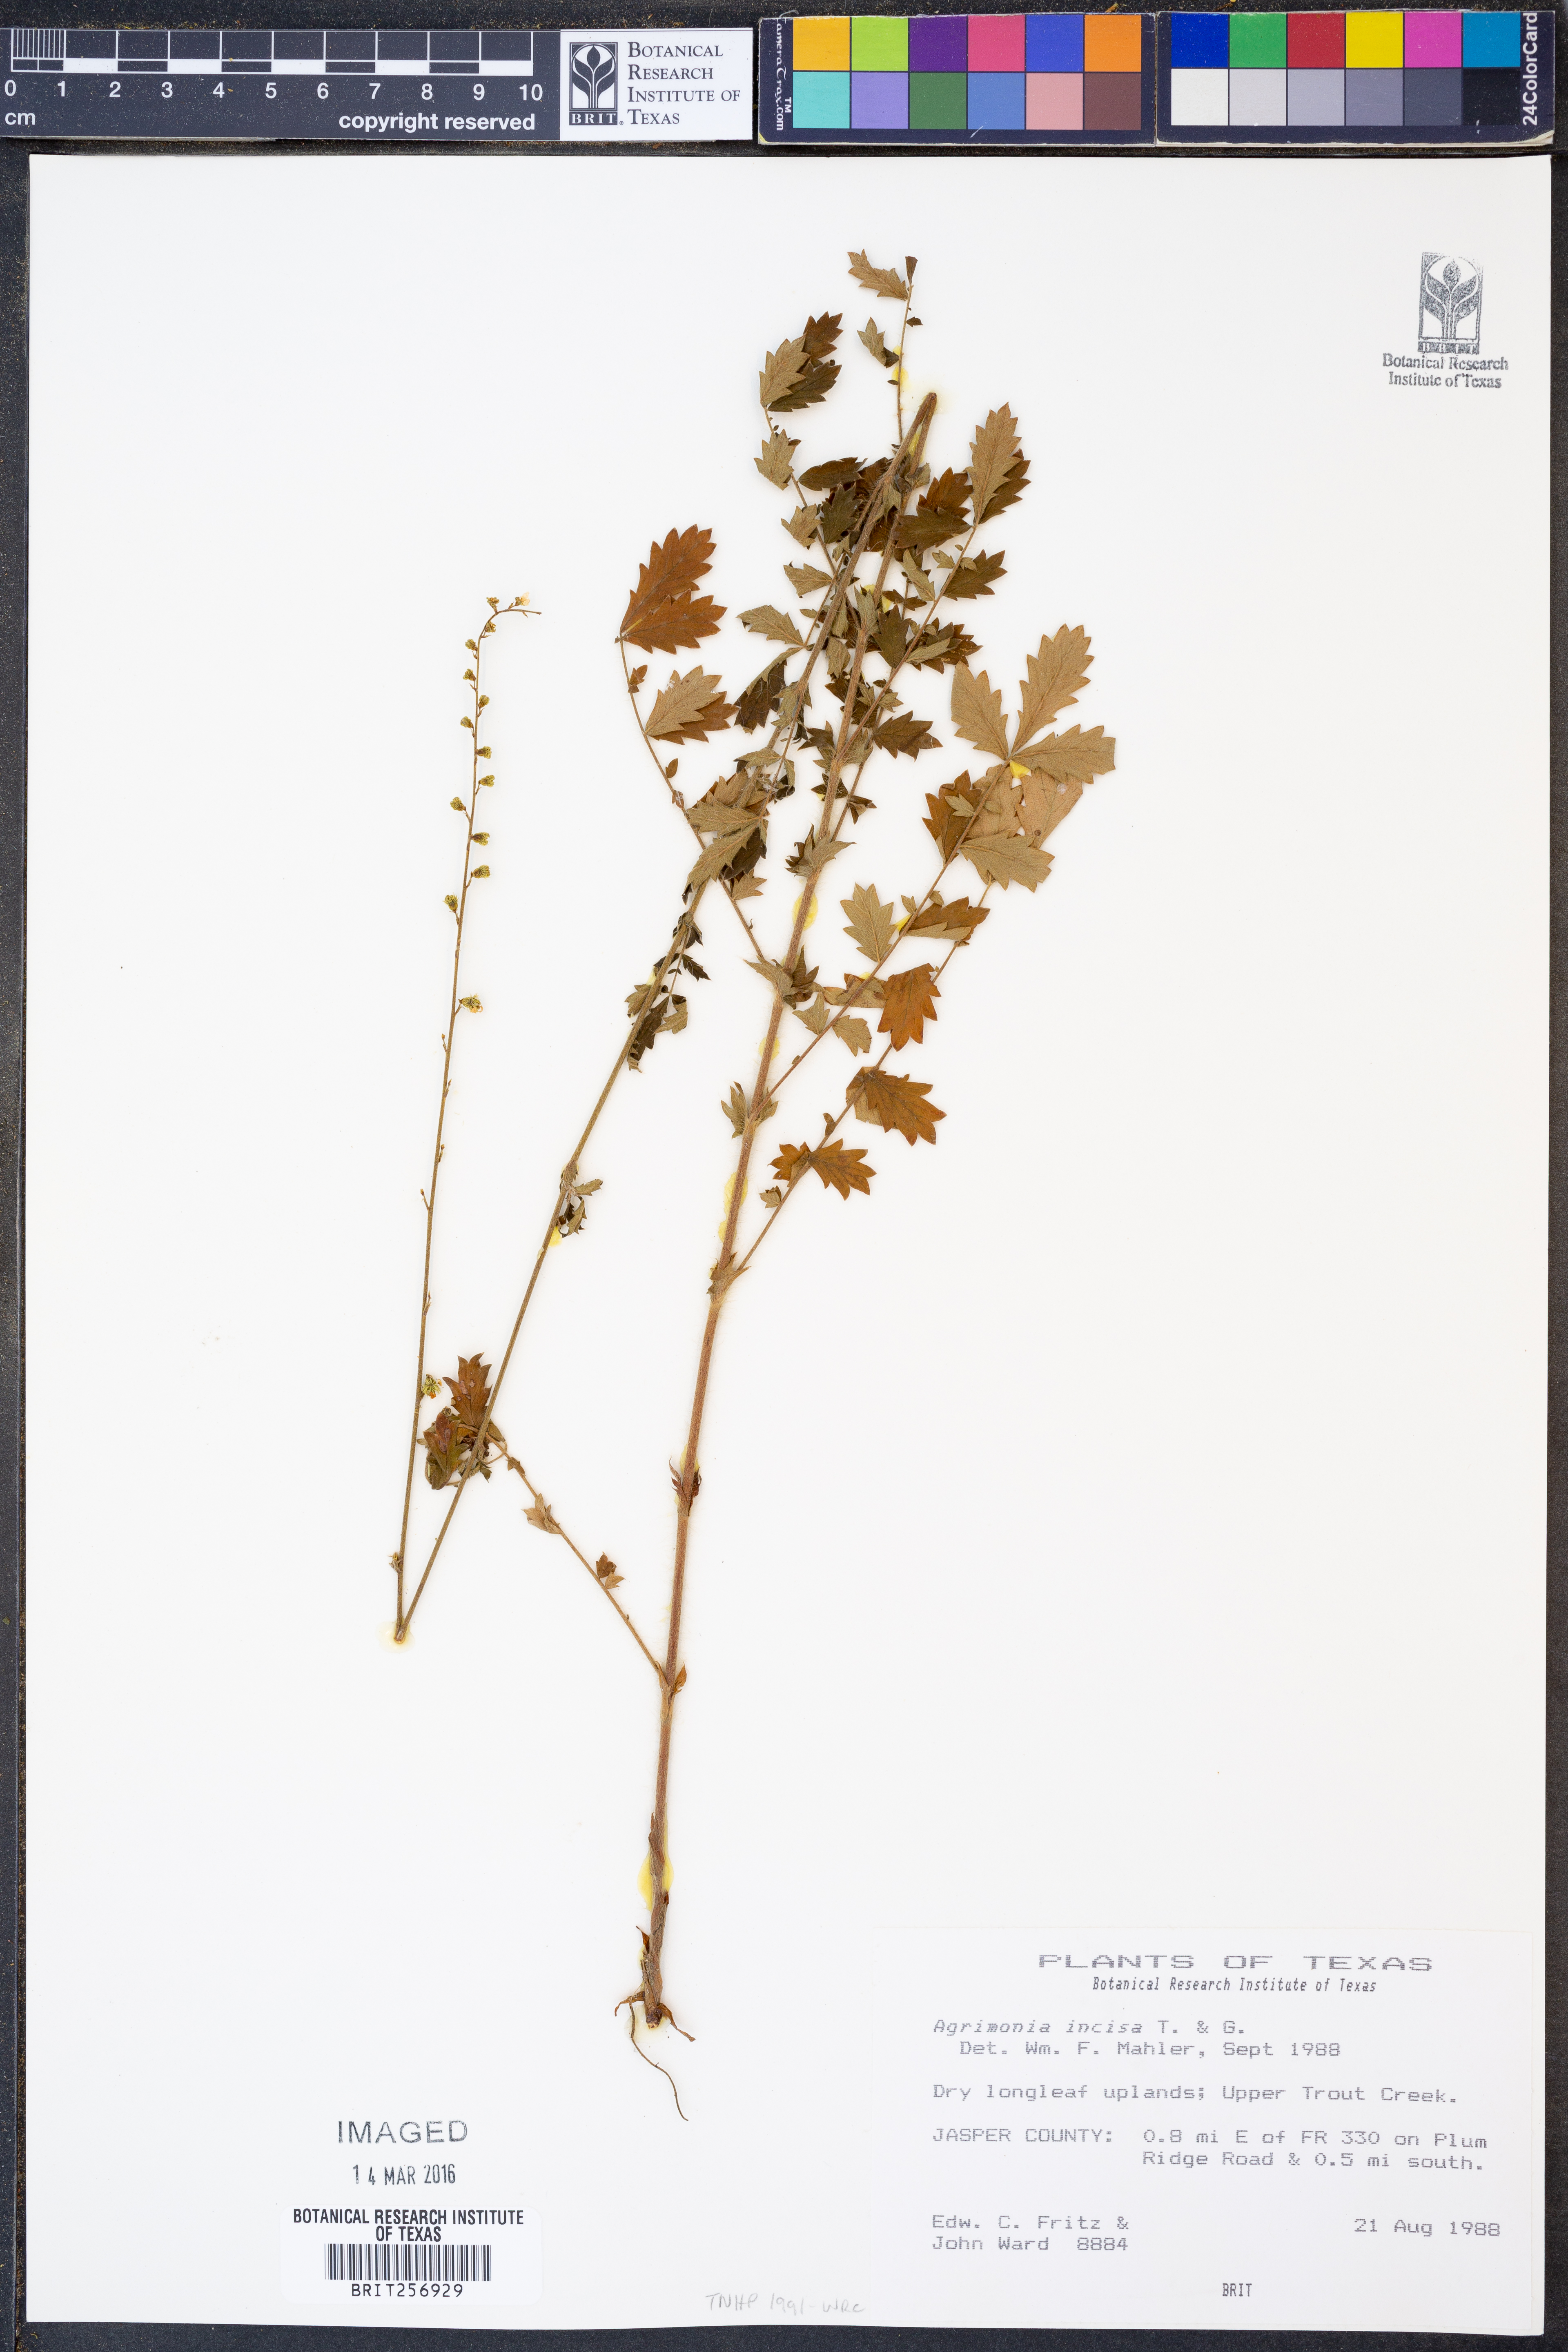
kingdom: Plantae
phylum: Tracheophyta
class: Magnoliopsida
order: Rosales
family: Rosaceae
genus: Agrimonia
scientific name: Agrimonia incisa
